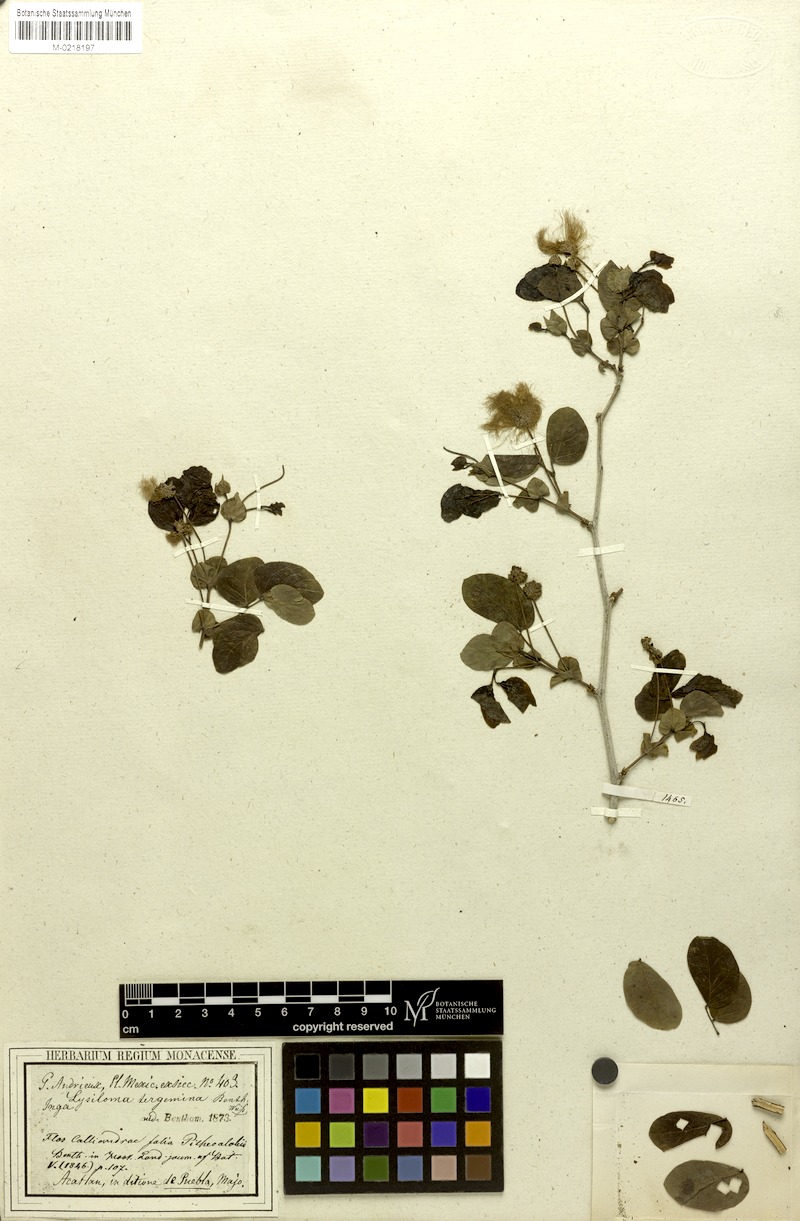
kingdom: Plantae
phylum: Tracheophyta
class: Magnoliopsida
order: Fabales
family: Fabaceae
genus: Lysiloma
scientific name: Lysiloma tergeminum
